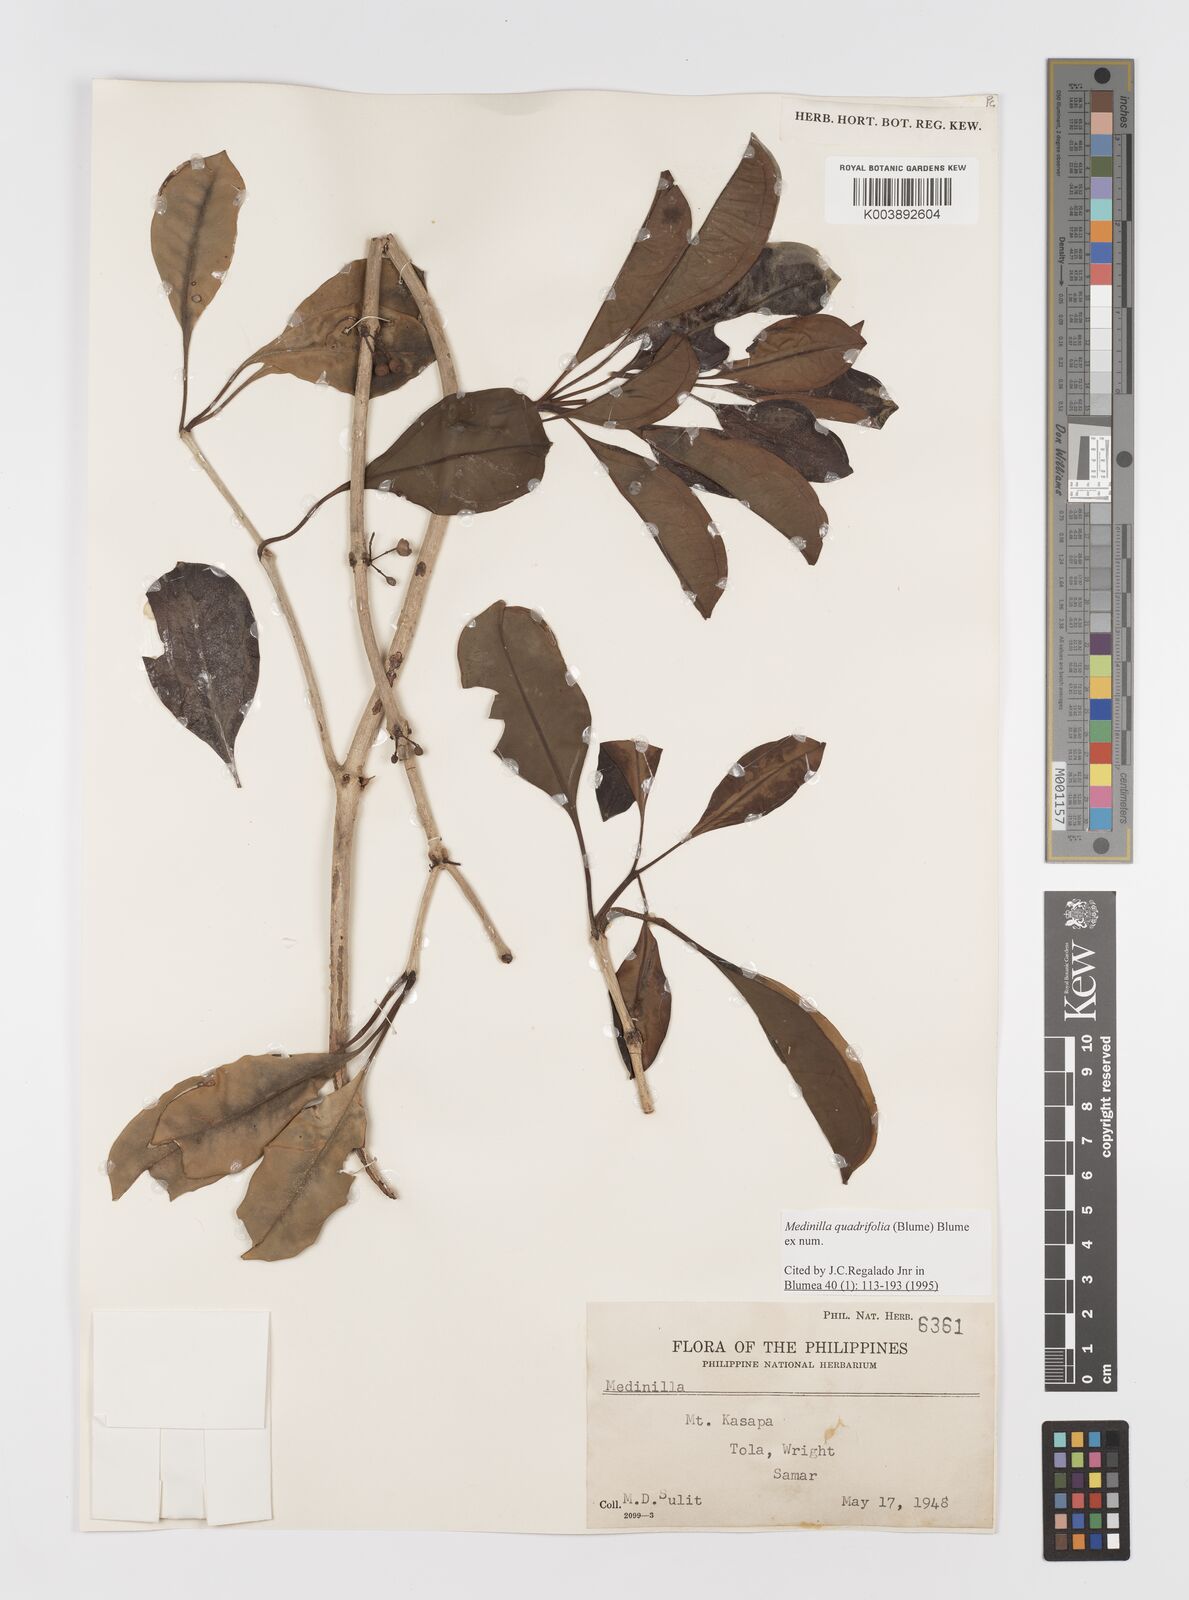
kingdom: Plantae
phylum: Tracheophyta
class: Magnoliopsida
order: Myrtales
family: Melastomataceae
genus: Medinilla
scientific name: Medinilla quadrifolia
